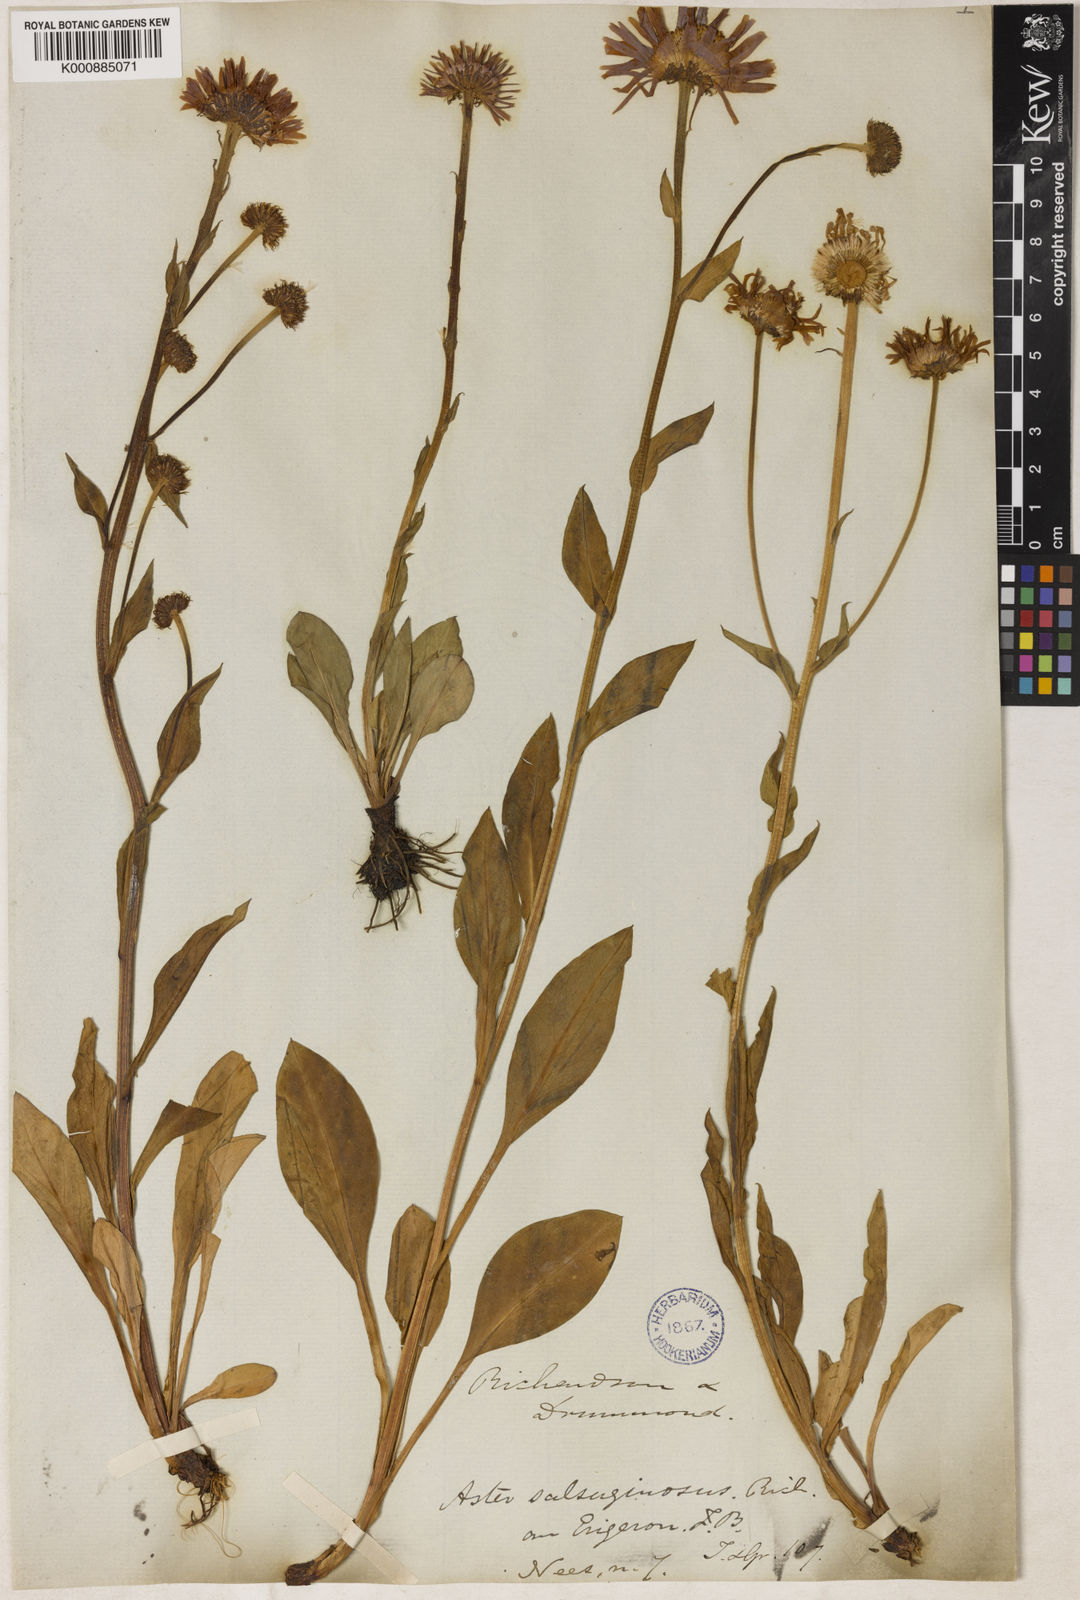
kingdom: Plantae
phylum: Tracheophyta
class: Magnoliopsida
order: Asterales
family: Asteraceae
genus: Eurybia
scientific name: Eurybia sibirica
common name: Arctic aster
